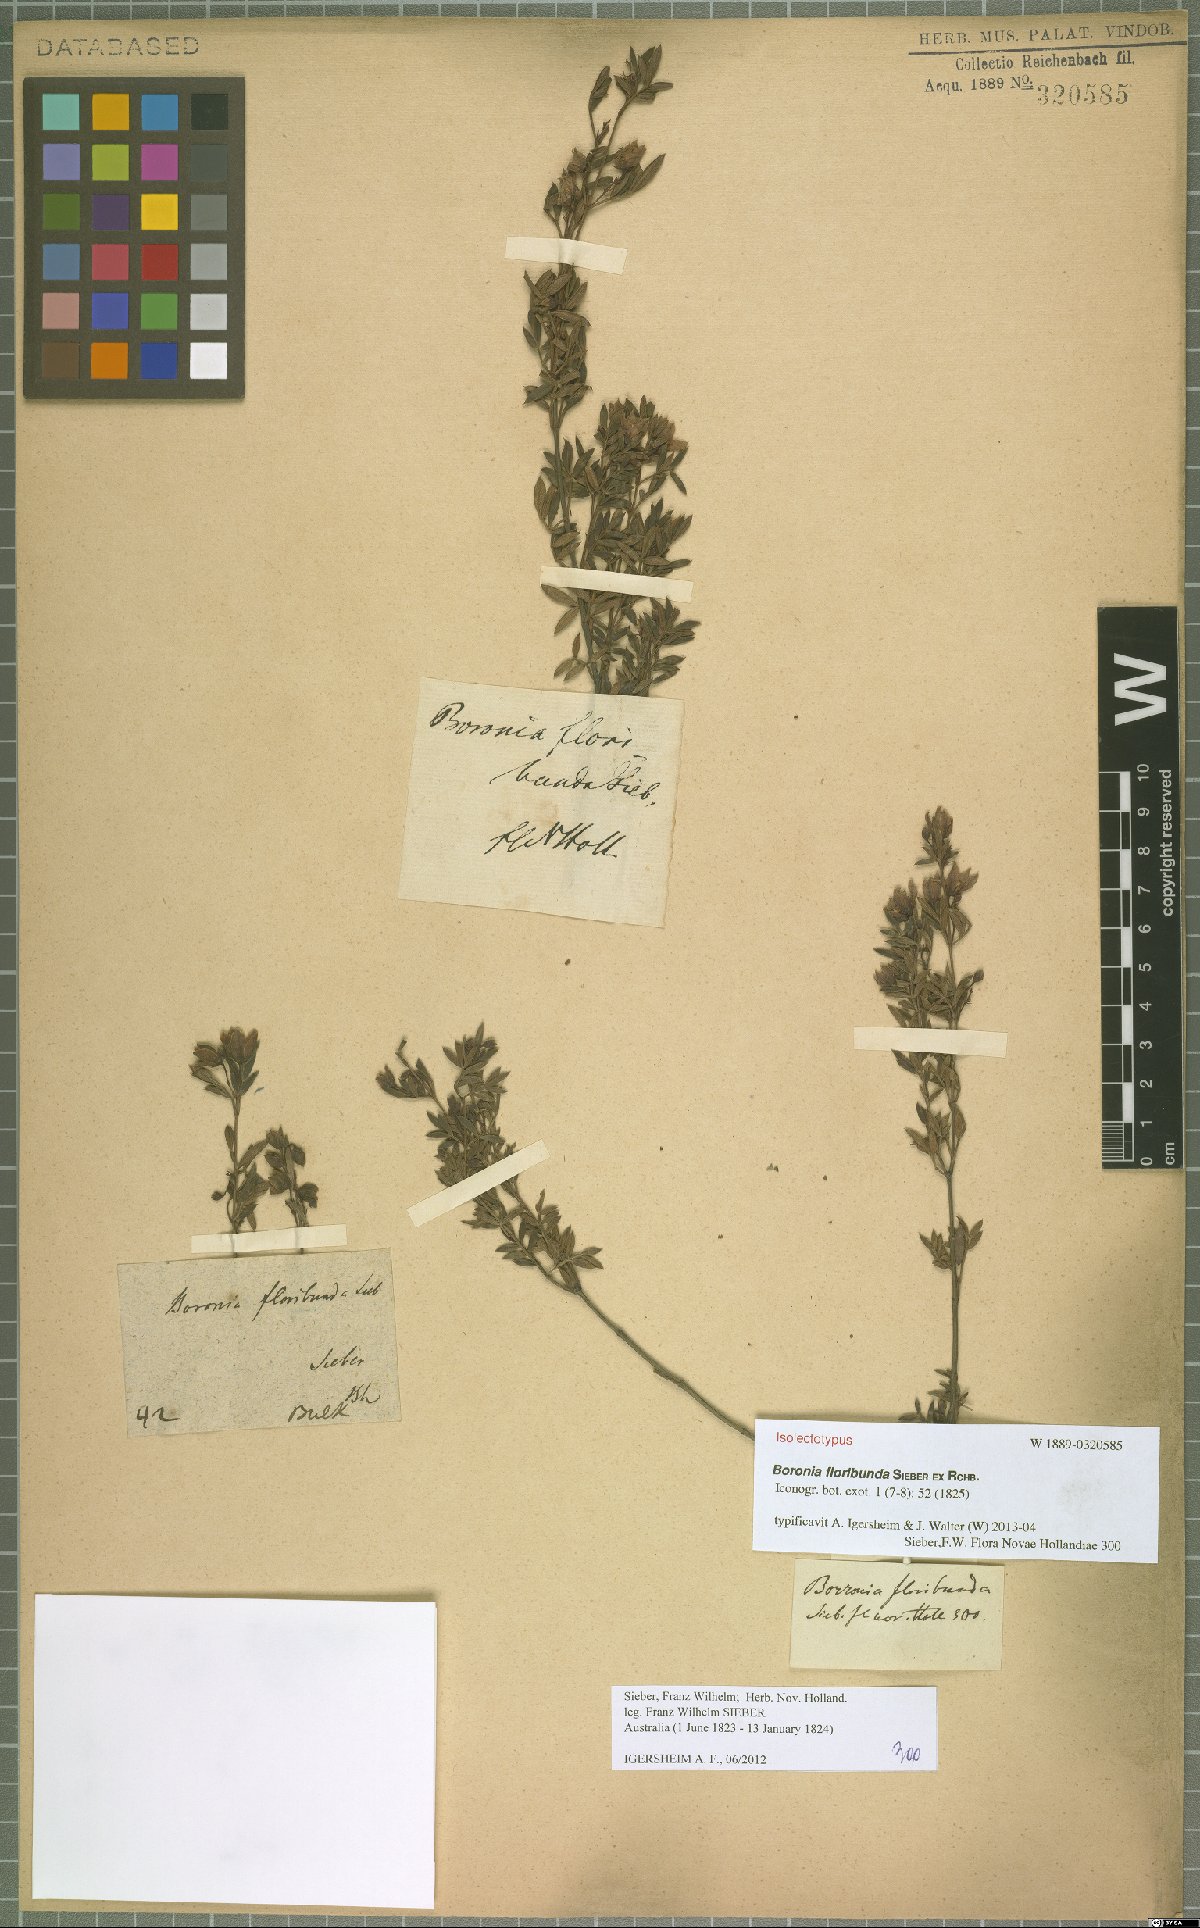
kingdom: Plantae
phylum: Tracheophyta
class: Magnoliopsida
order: Sapindales
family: Rutaceae
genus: Boronia
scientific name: Boronia floribunda
